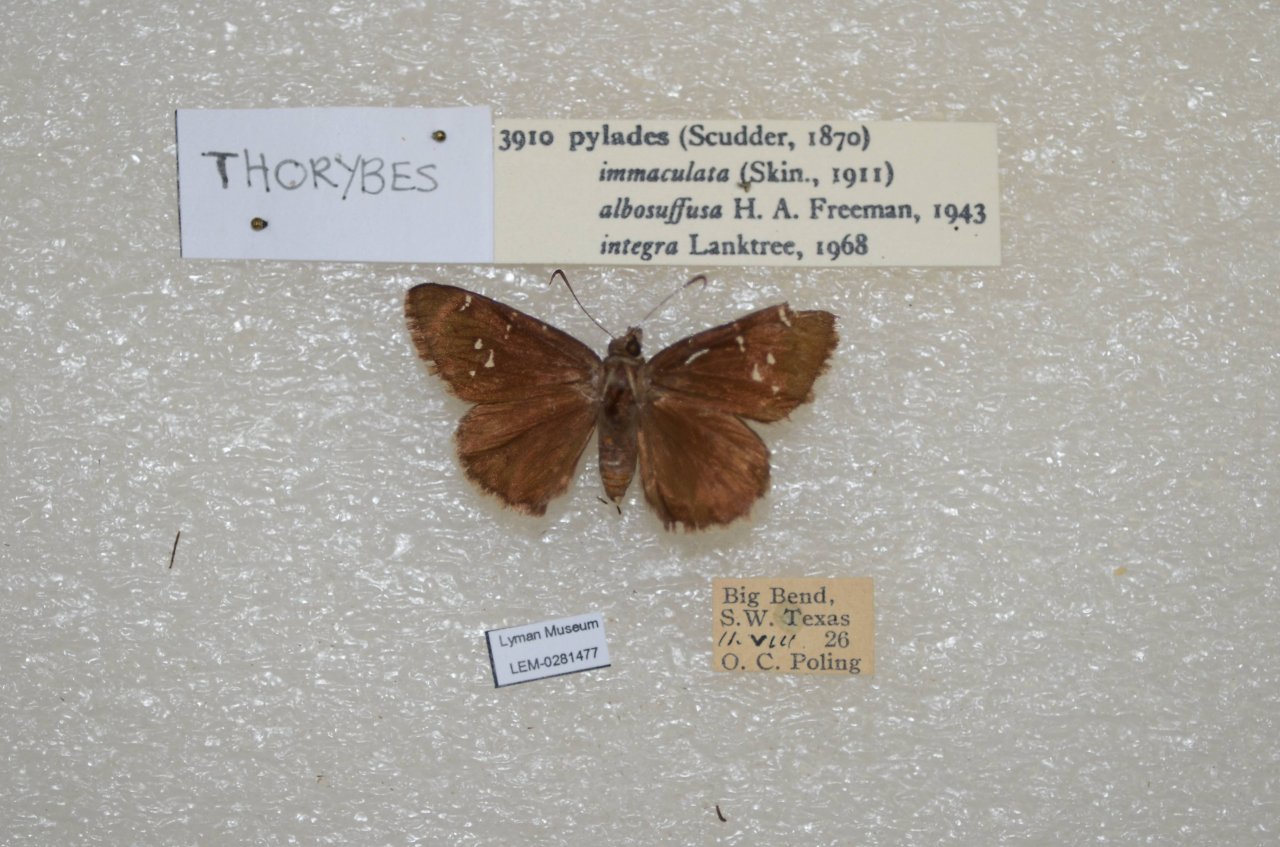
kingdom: Animalia
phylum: Arthropoda
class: Insecta
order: Lepidoptera
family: Hesperiidae
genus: Autochton
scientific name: Autochton
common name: Northern Cloudywing
